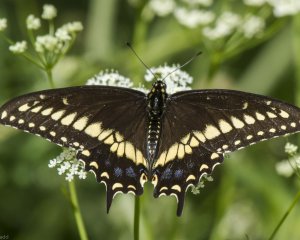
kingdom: Animalia
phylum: Arthropoda
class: Insecta
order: Lepidoptera
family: Papilionidae
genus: Papilio
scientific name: Papilio polyxenes
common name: Black Swallowtail
